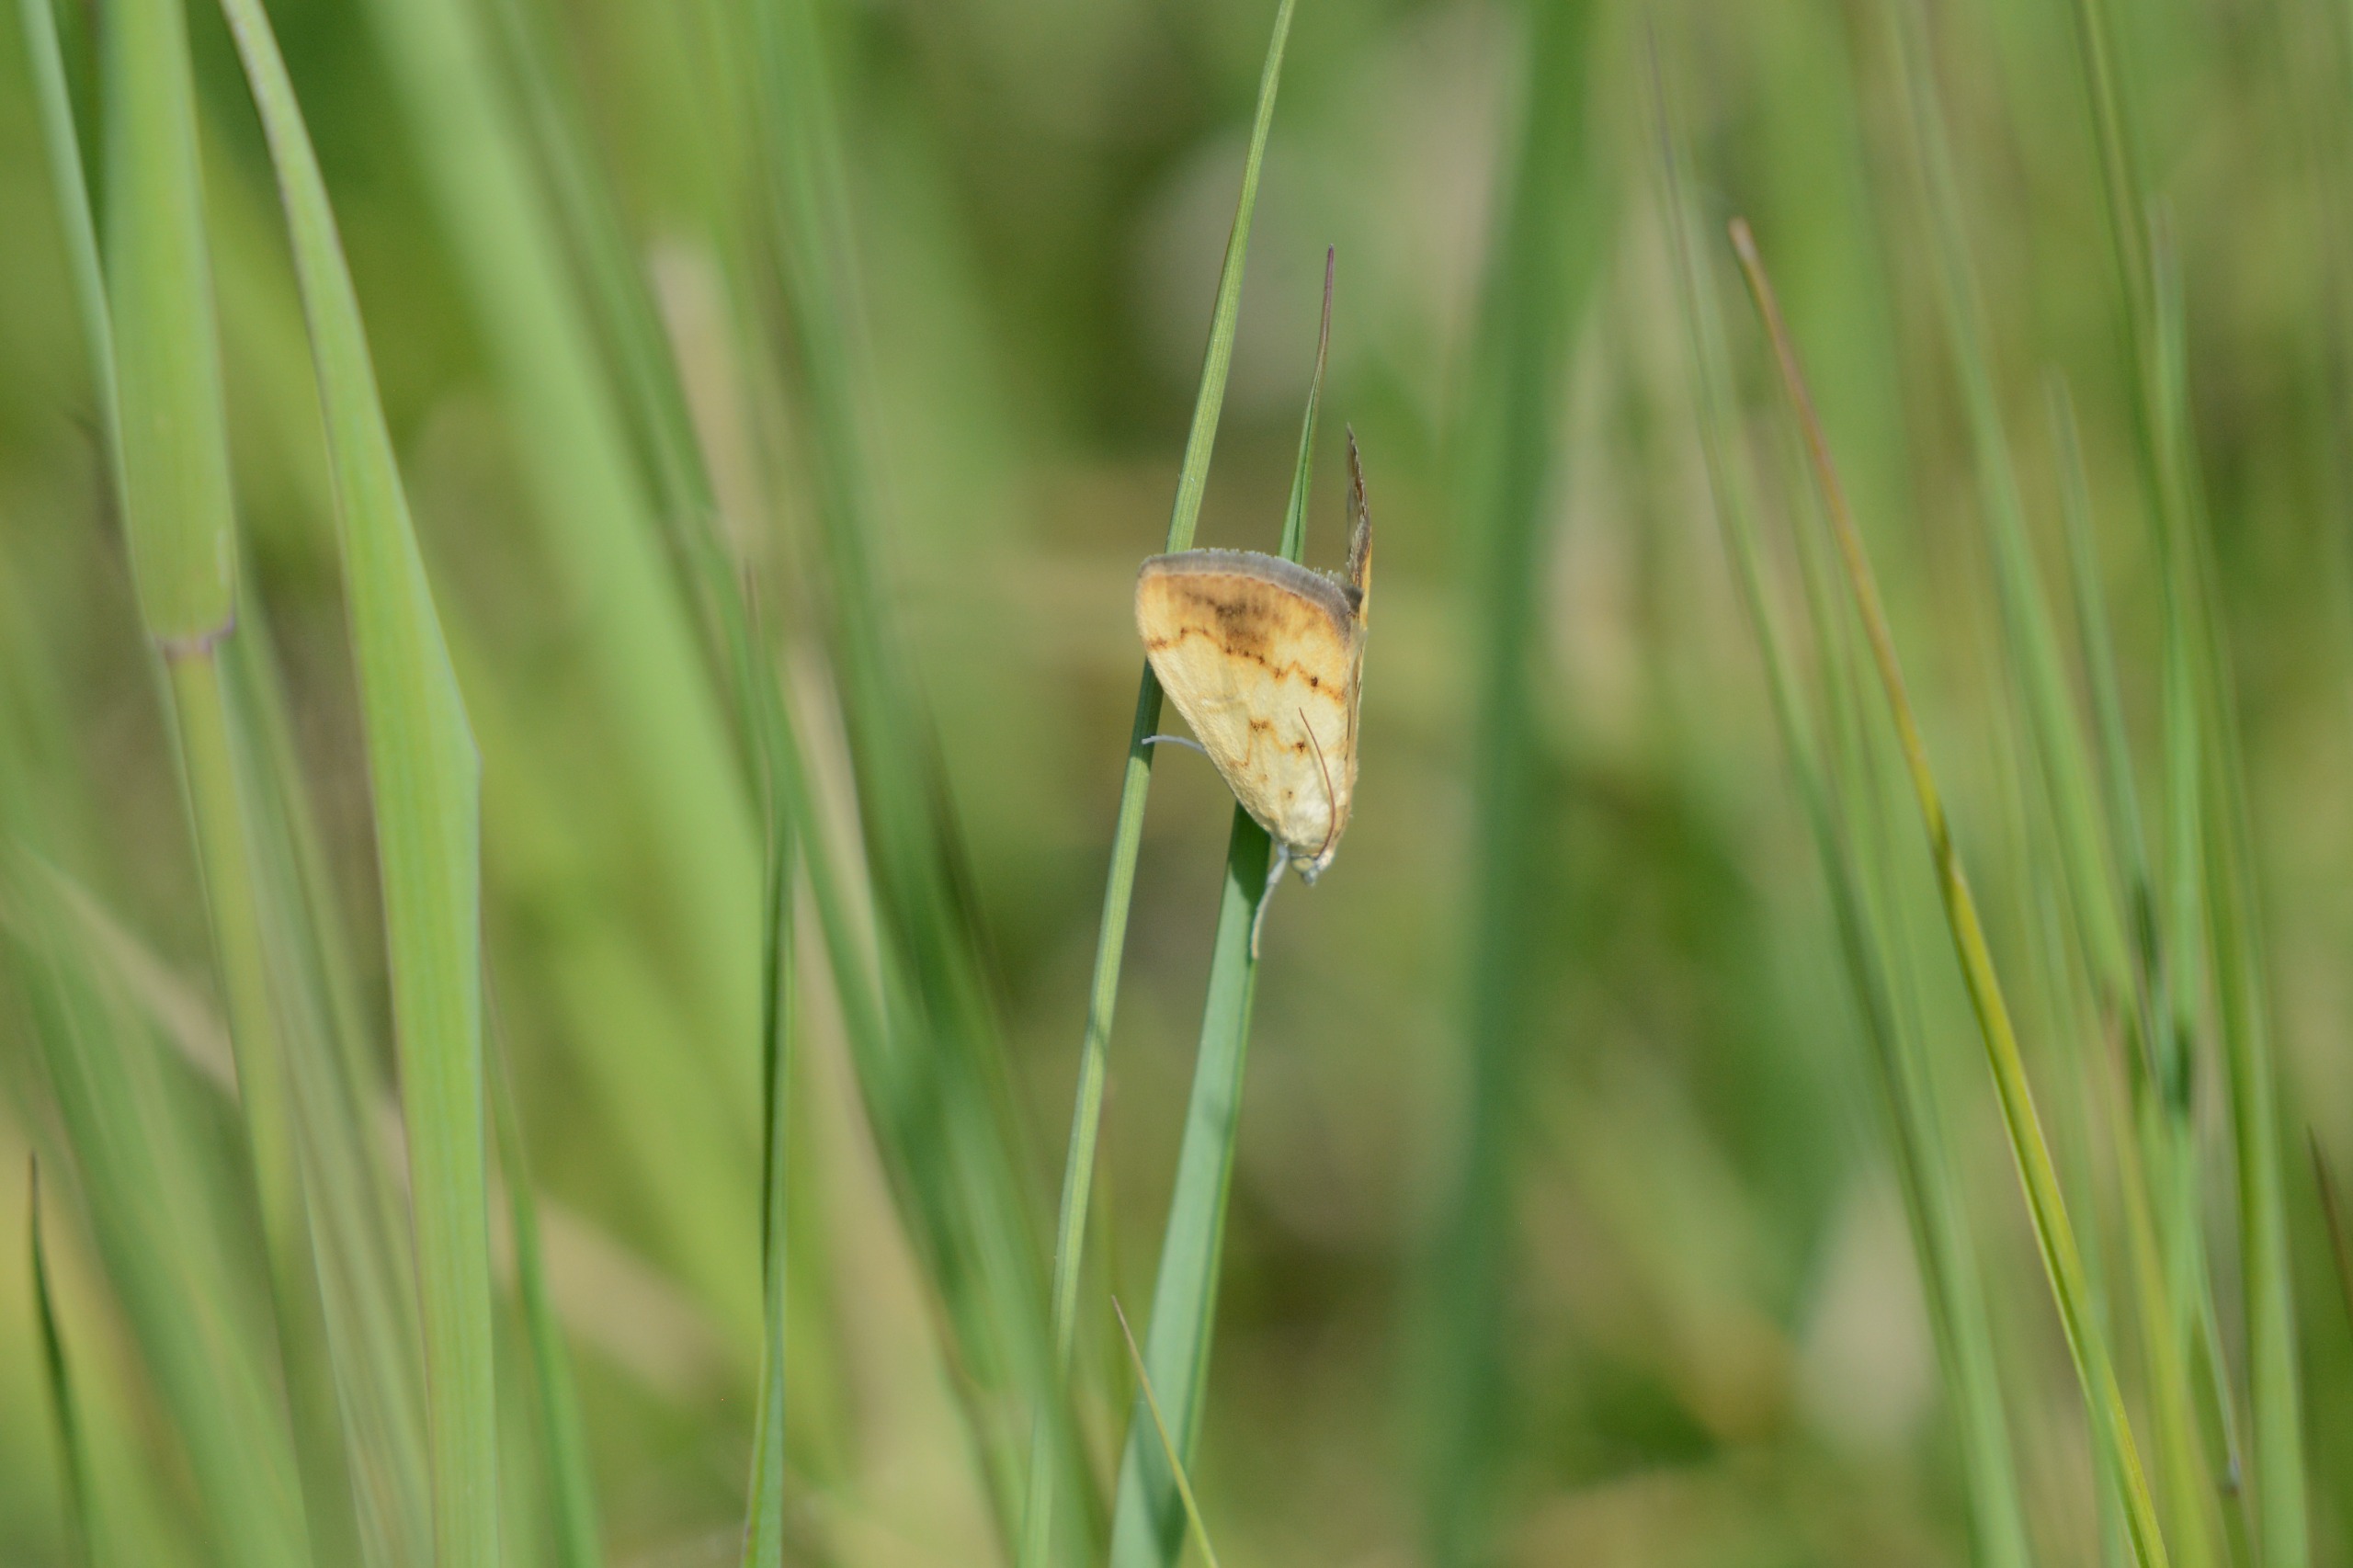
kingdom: Animalia
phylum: Arthropoda
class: Insecta
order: Lepidoptera
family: Crambidae
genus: Evergestis
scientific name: Evergestis extimalis
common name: Korsblomsthalvmøl
